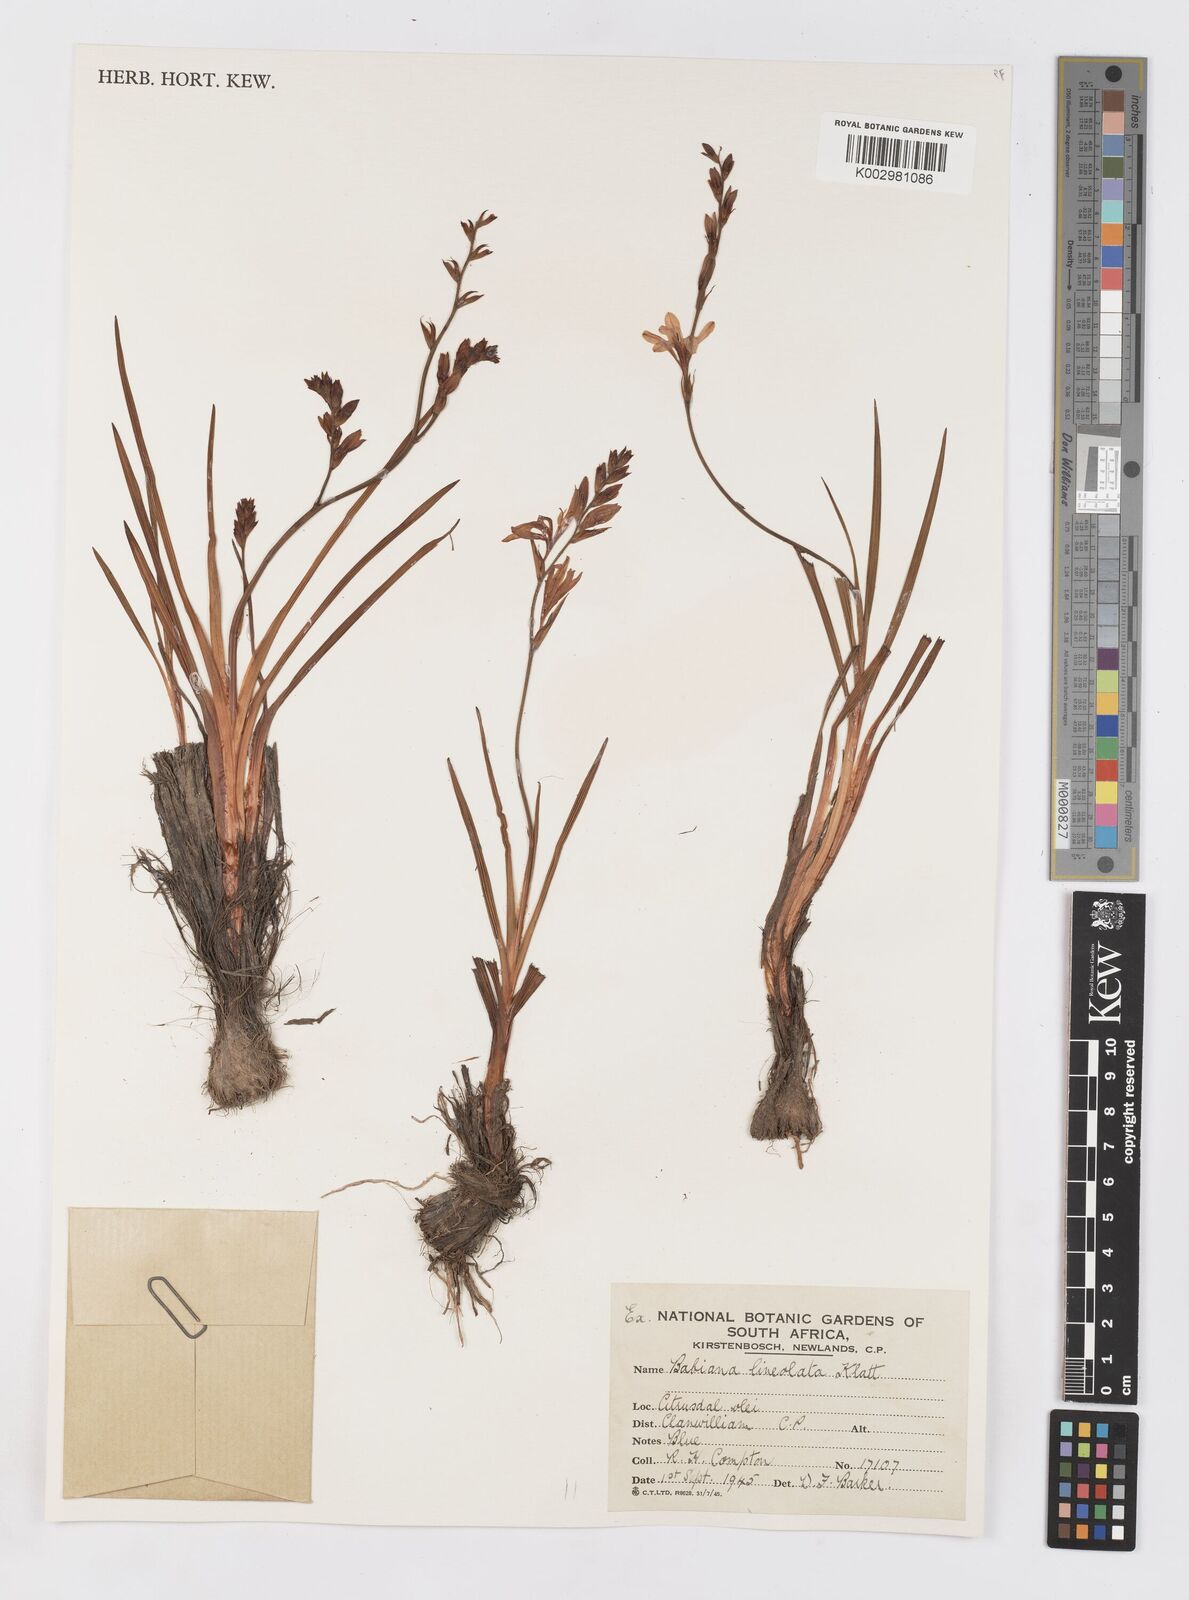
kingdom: Plantae
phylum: Tracheophyta
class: Liliopsida
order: Asparagales
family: Iridaceae
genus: Babiana
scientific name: Babiana lineolata
